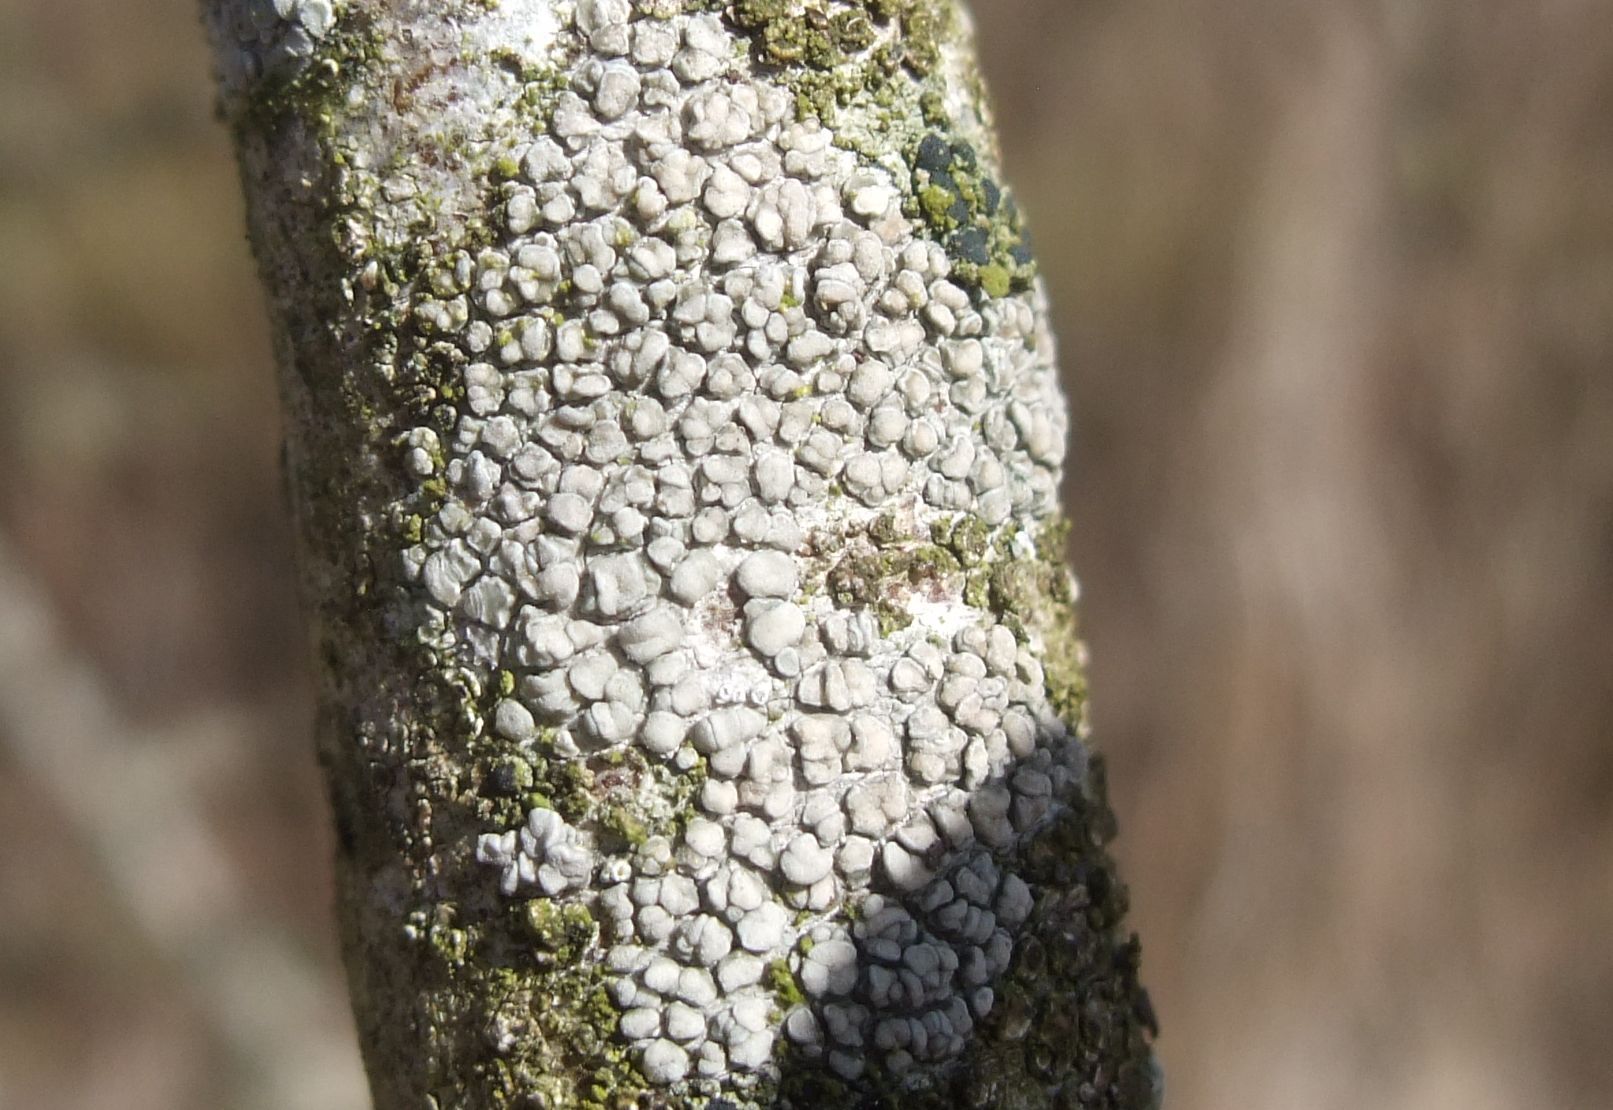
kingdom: Fungi
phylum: Ascomycota
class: Lecanoromycetes
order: Lecanorales
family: Lecanoraceae
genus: Glaucomaria
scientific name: Glaucomaria carpinea
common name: hviddugget kantskivelav
